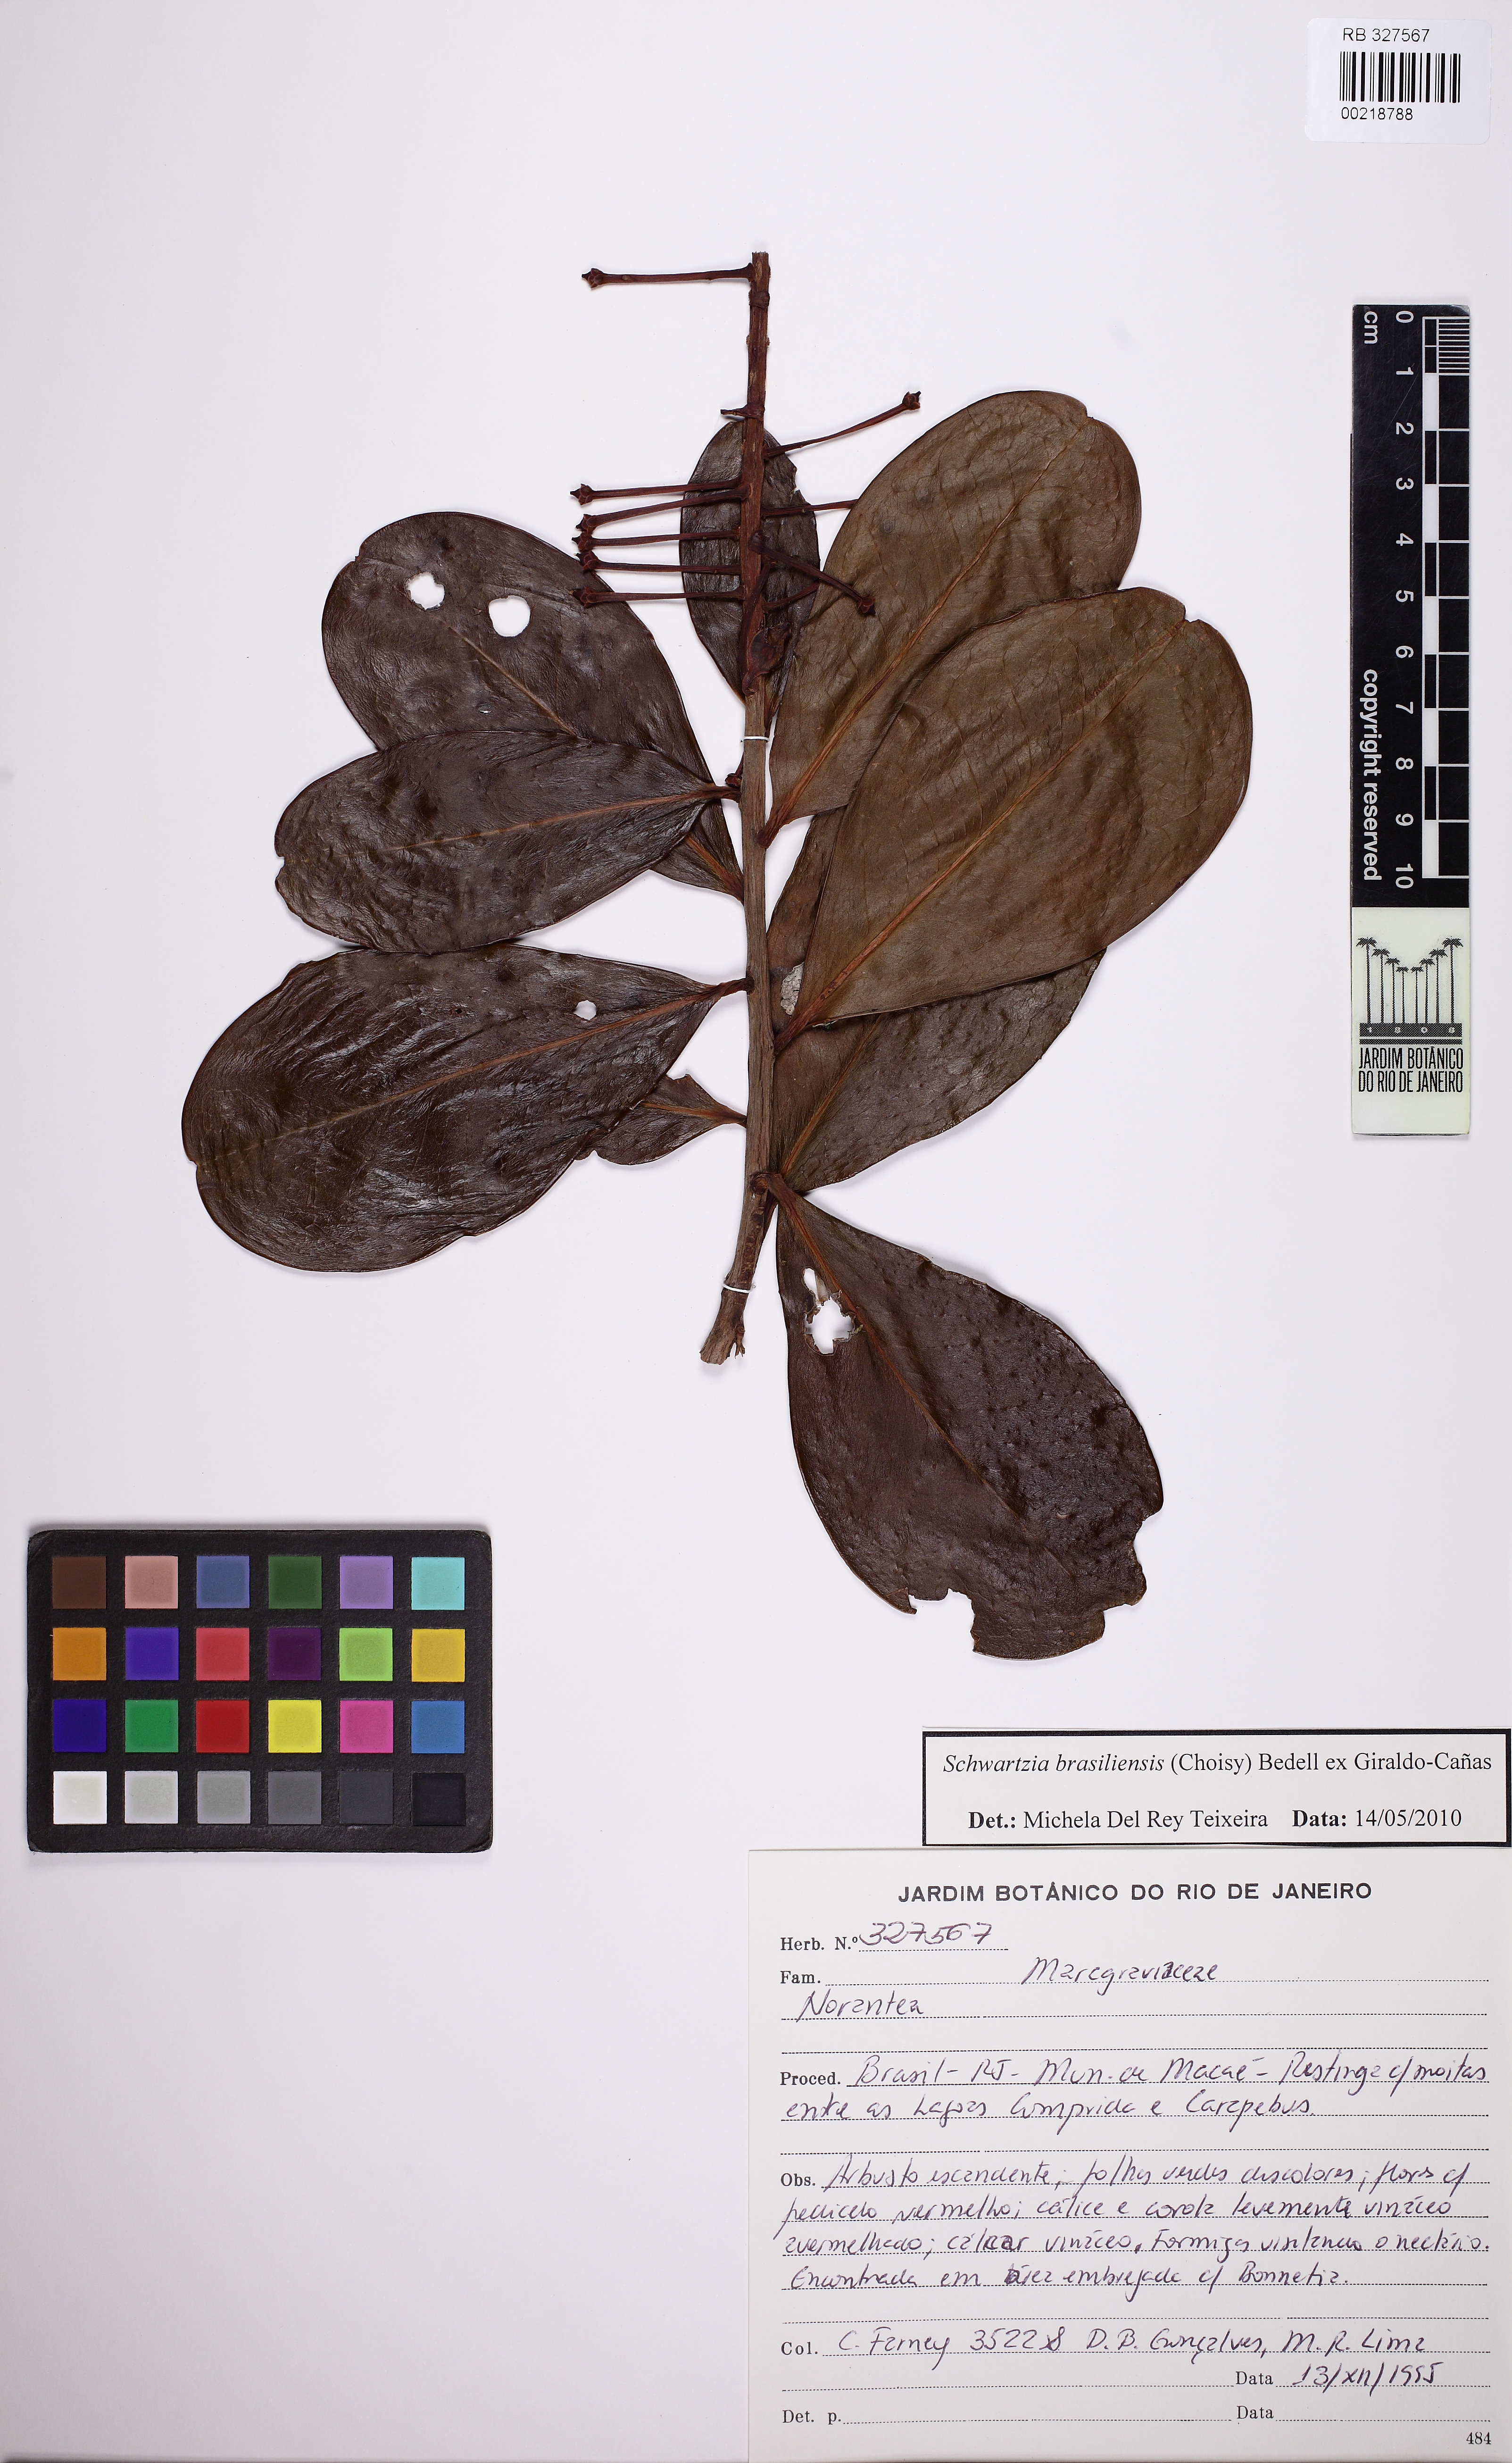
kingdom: Plantae
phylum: Tracheophyta
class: Magnoliopsida
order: Ericales
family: Marcgraviaceae
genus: Schwartzia
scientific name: Schwartzia brasiliensis
